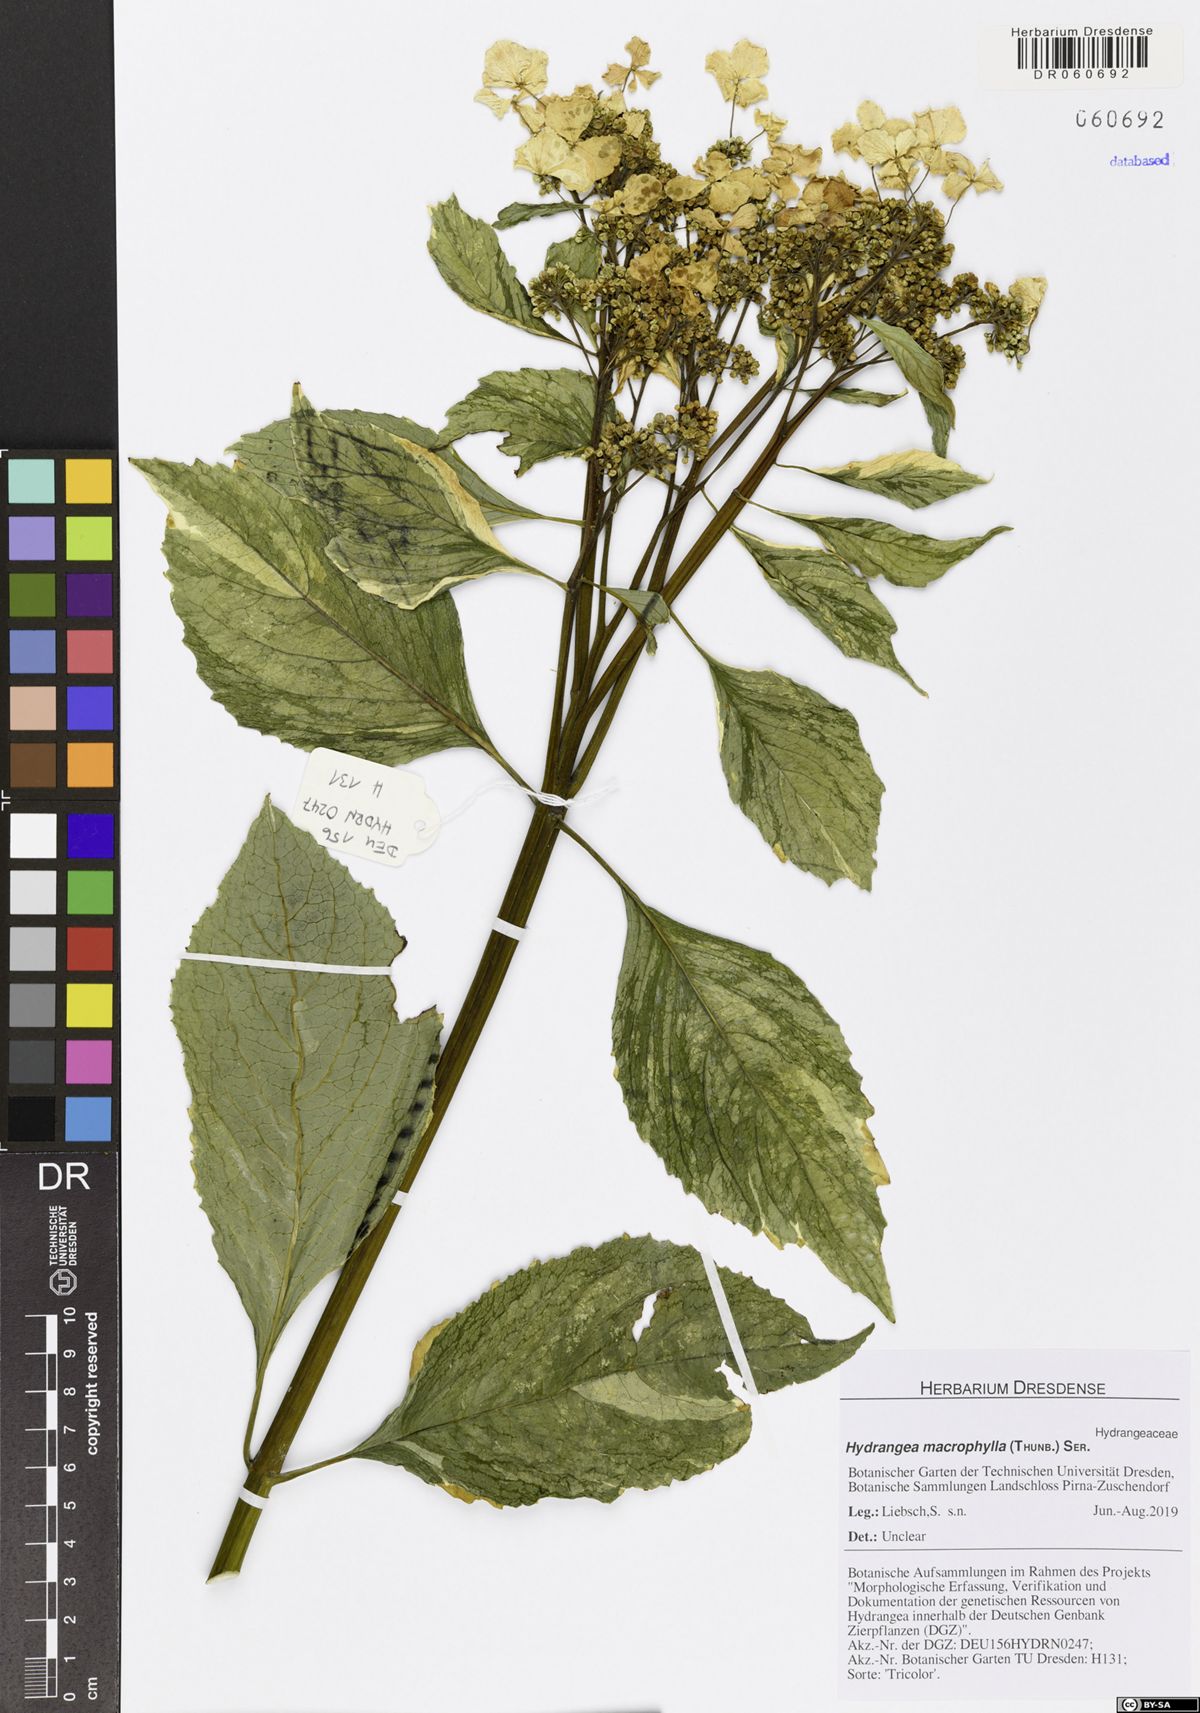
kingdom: Plantae
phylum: Tracheophyta
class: Magnoliopsida
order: Cornales
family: Hydrangeaceae
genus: Hydrangea
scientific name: Hydrangea macrophylla
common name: Hydrangea
